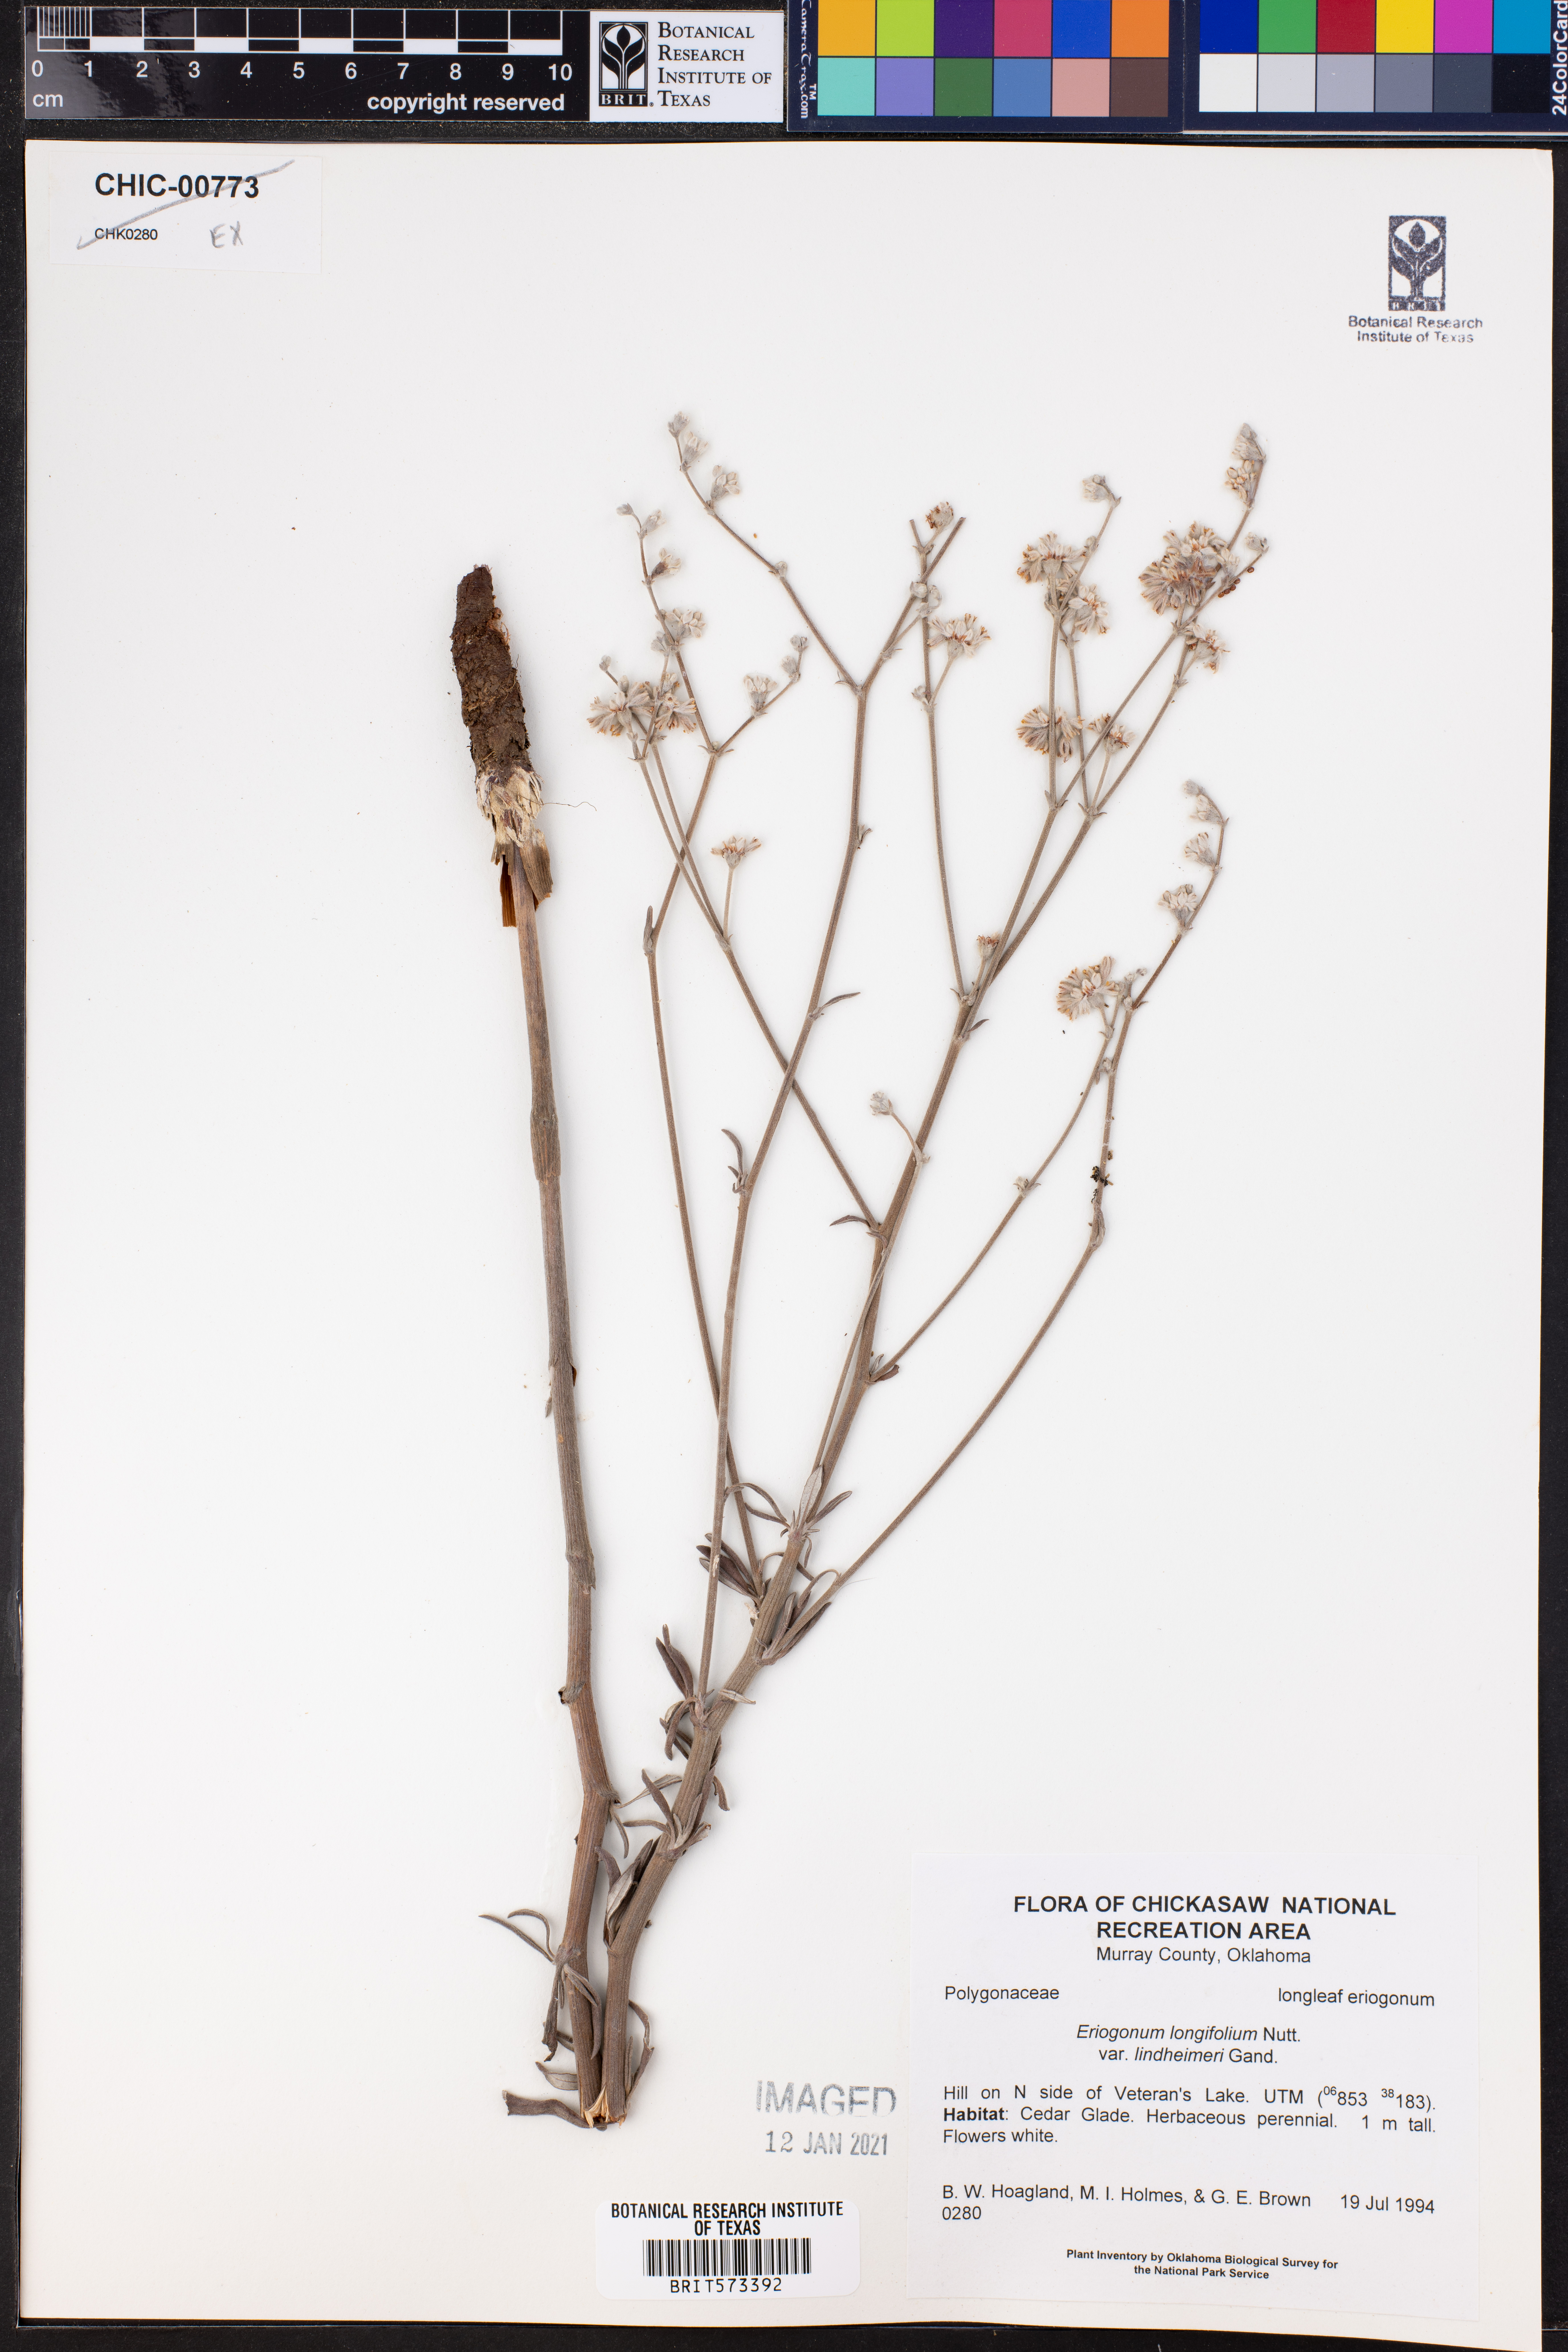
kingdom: Plantae
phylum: Tracheophyta
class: Magnoliopsida
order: Caryophyllales
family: Polygonaceae
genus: Eriogonum
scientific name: Eriogonum longifolium
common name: Longleaf wild buckwheat
